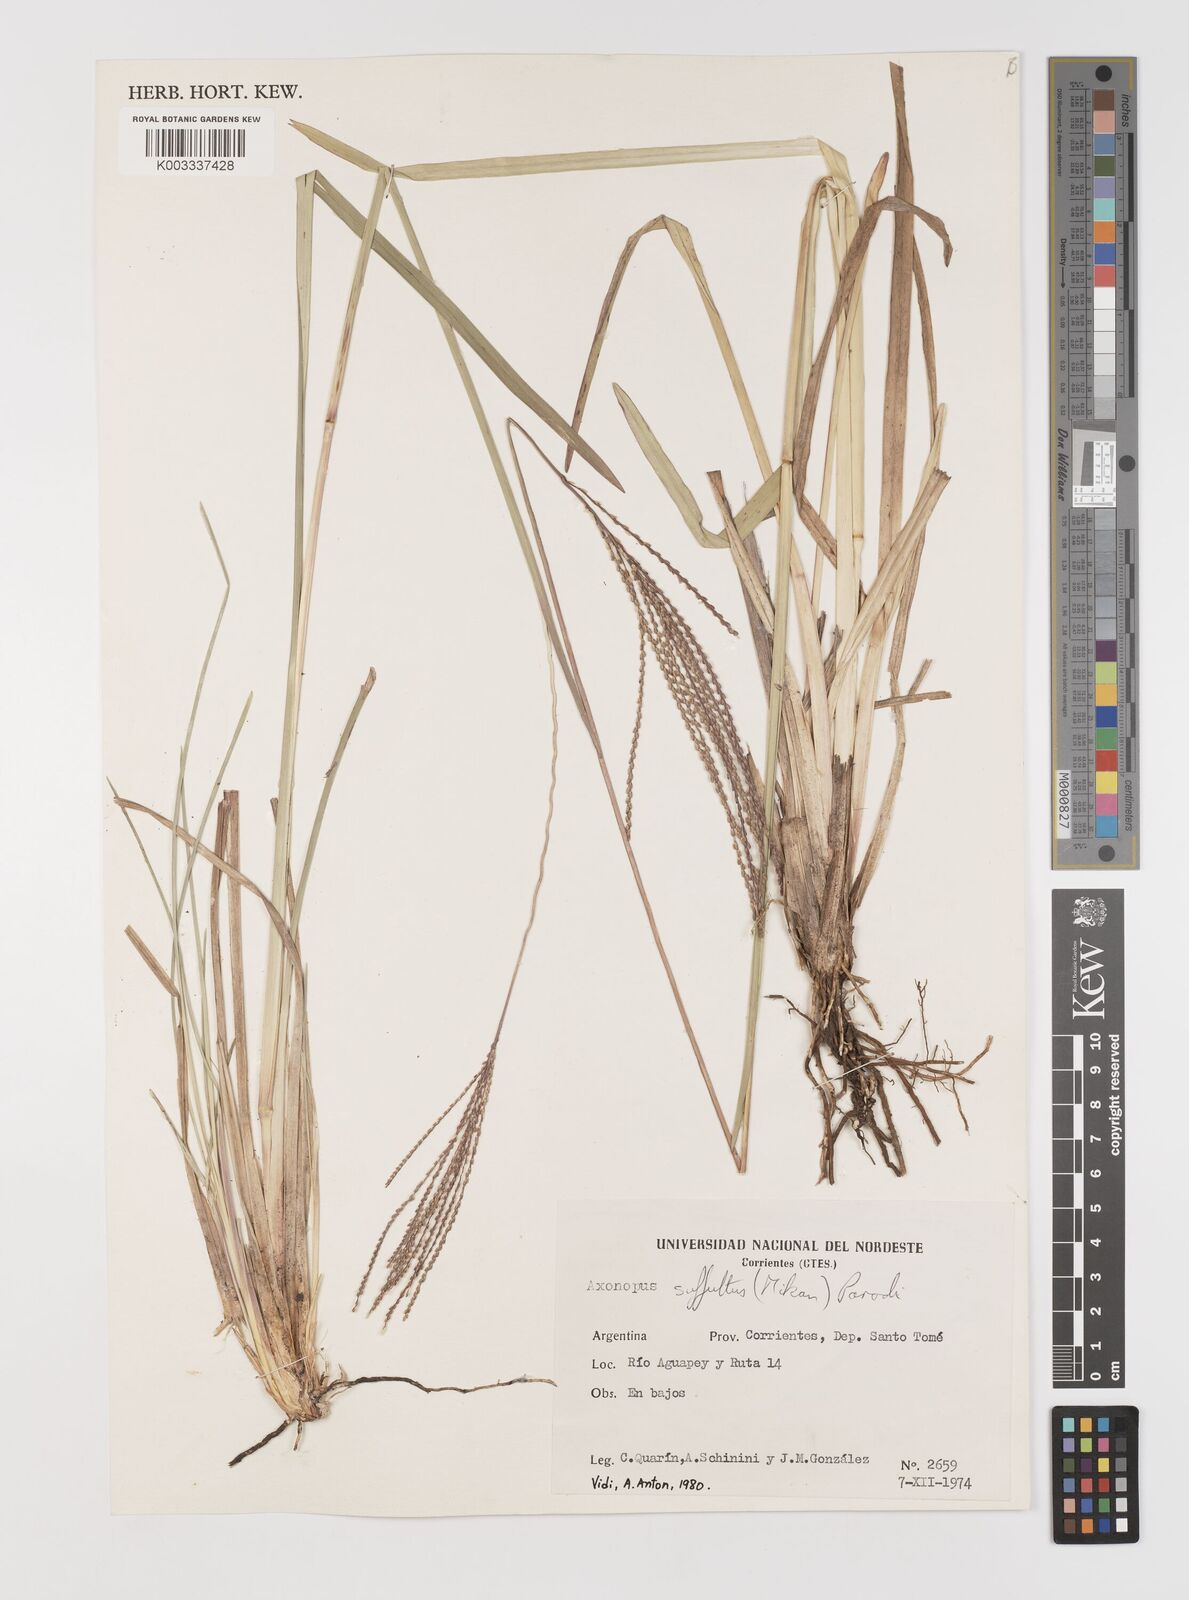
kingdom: Plantae
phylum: Tracheophyta
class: Liliopsida
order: Poales
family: Poaceae
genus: Axonopus
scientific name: Axonopus suffultus
